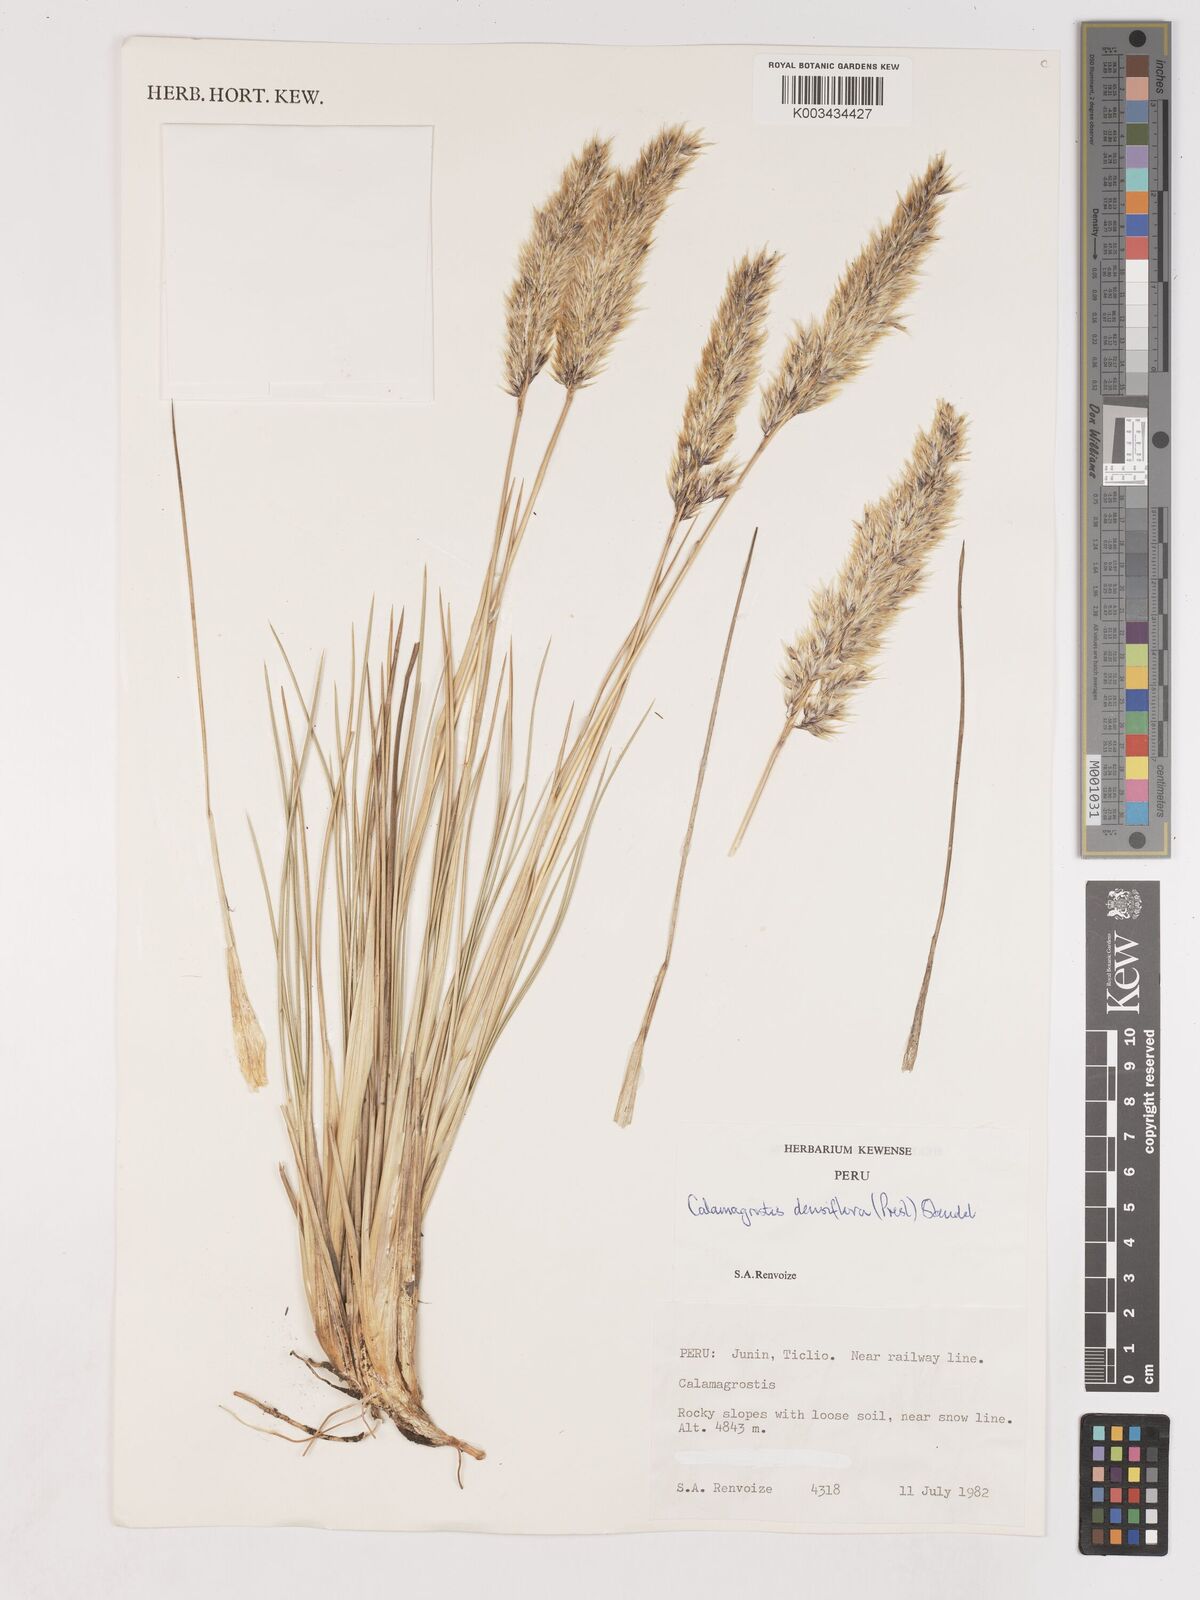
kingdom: Plantae
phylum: Tracheophyta
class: Liliopsida
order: Poales
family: Poaceae
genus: Cinnagrostis
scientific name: Cinnagrostis densiflora
